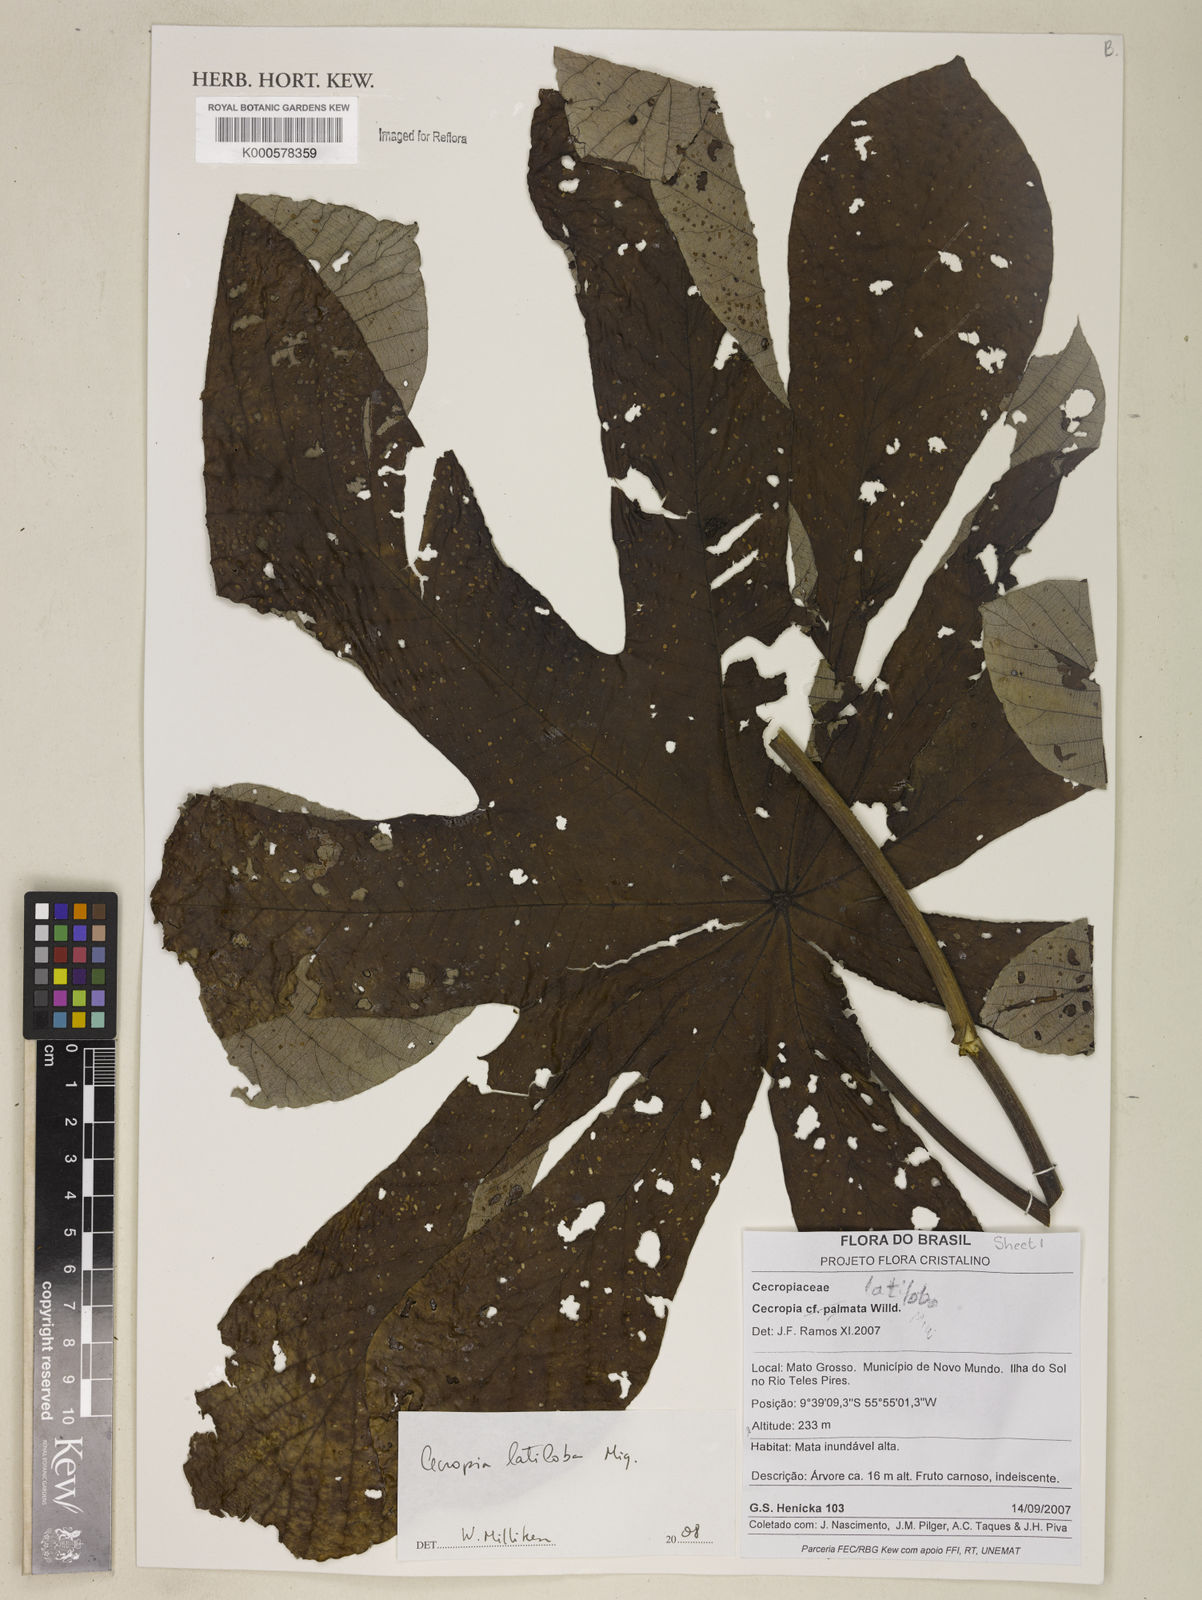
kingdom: Plantae
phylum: Tracheophyta
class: Magnoliopsida
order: Rosales
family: Urticaceae
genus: Cecropia
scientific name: Cecropia latiloba
